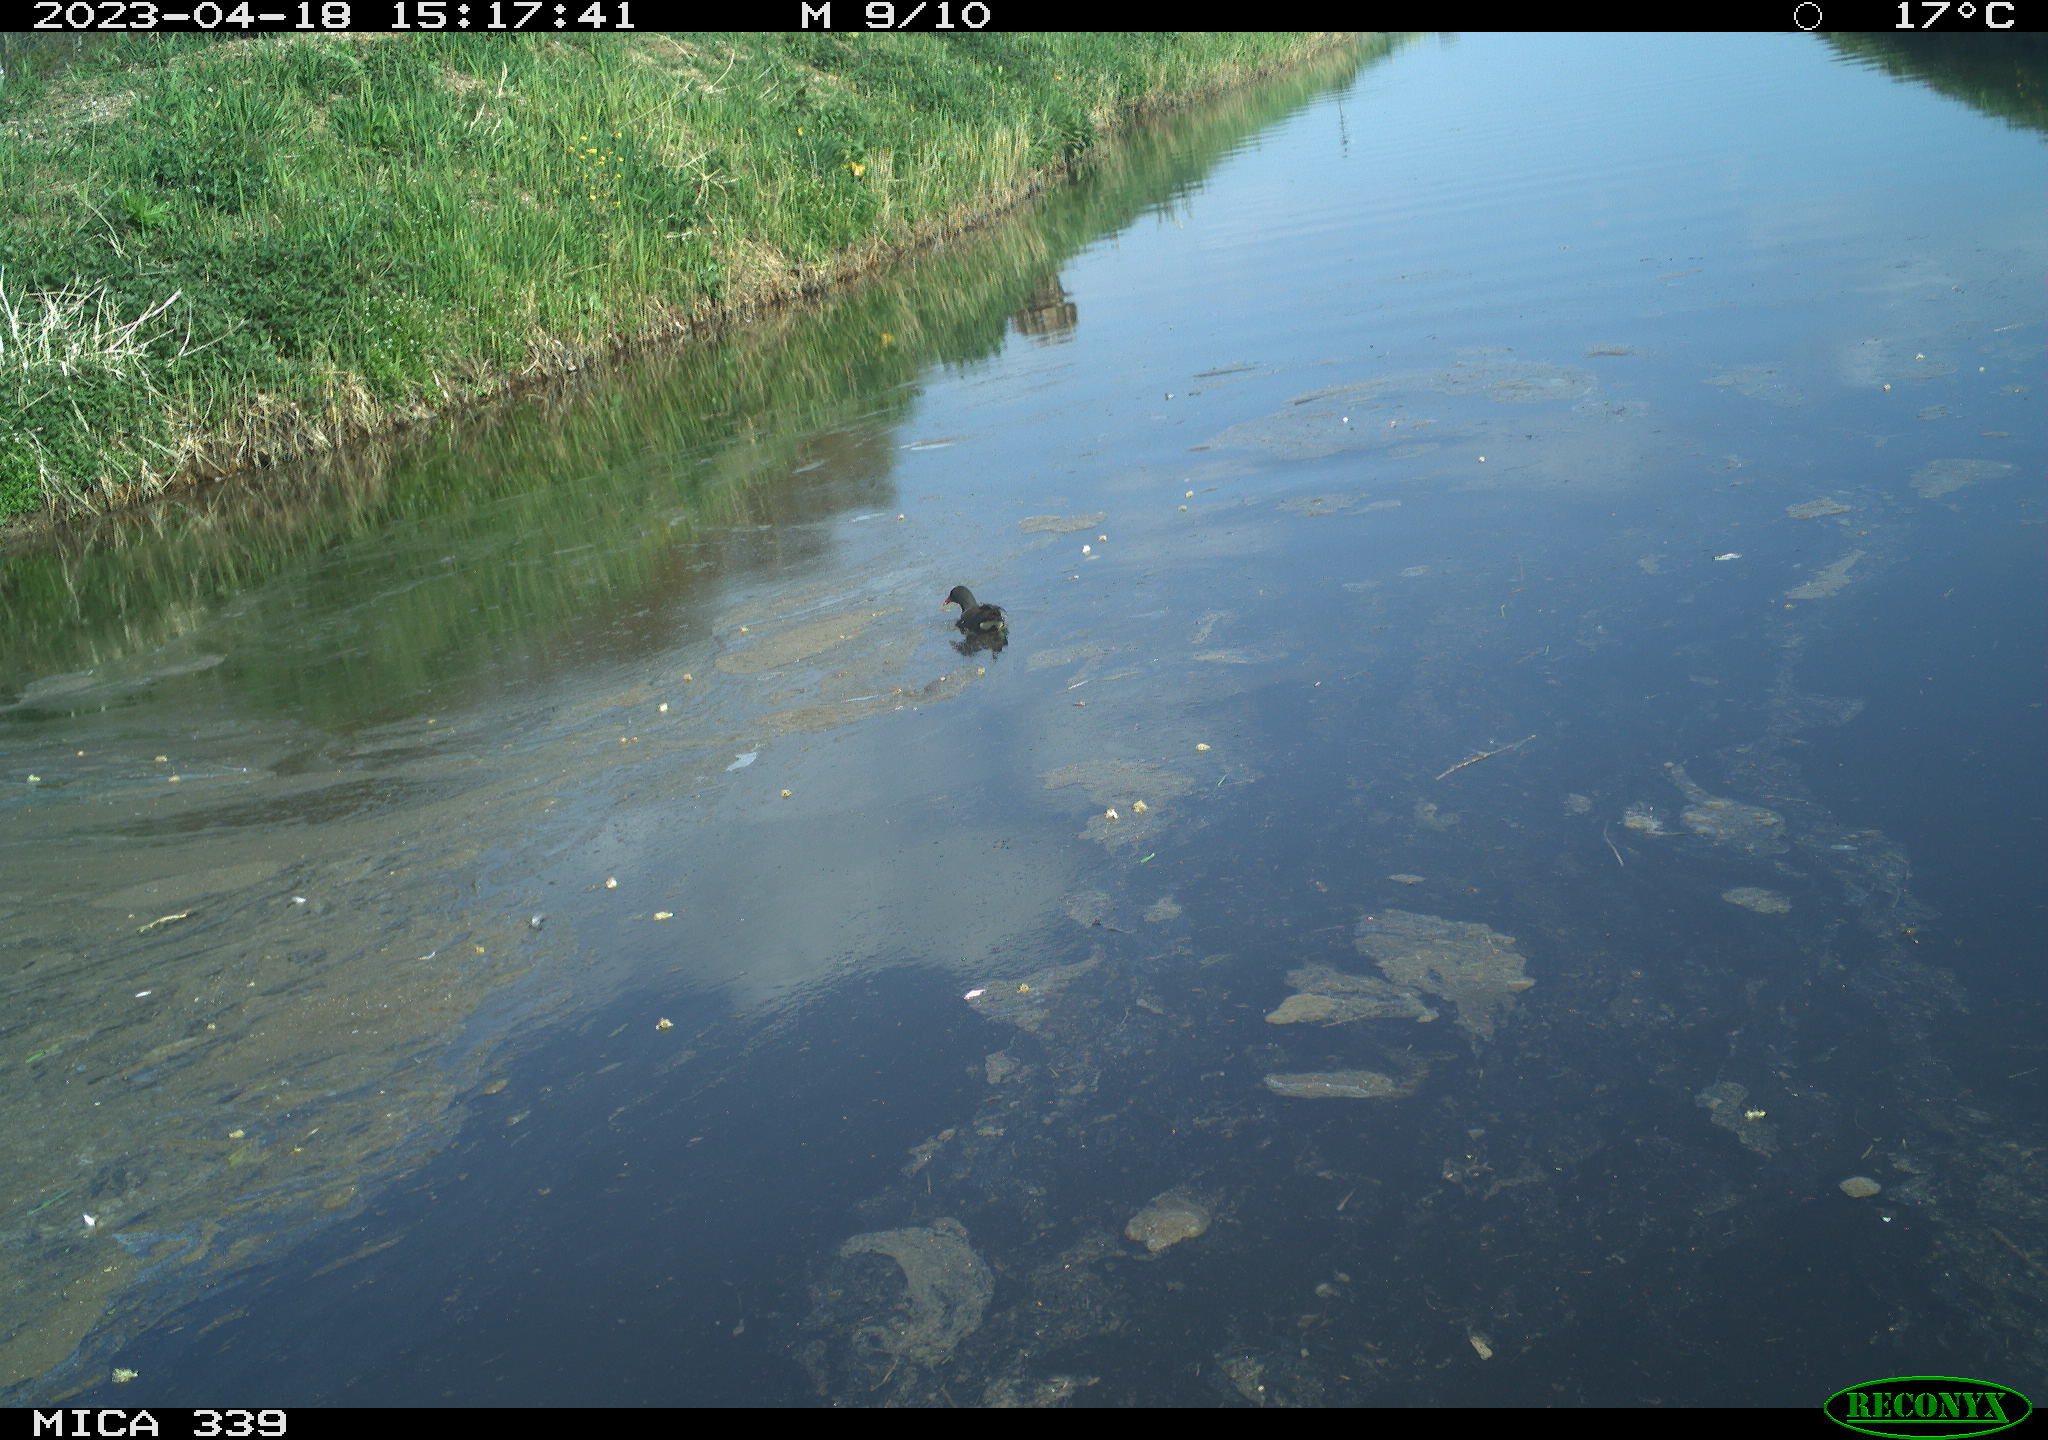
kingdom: Animalia
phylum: Chordata
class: Aves
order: Gruiformes
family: Rallidae
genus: Gallinula
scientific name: Gallinula chloropus
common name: Common moorhen
